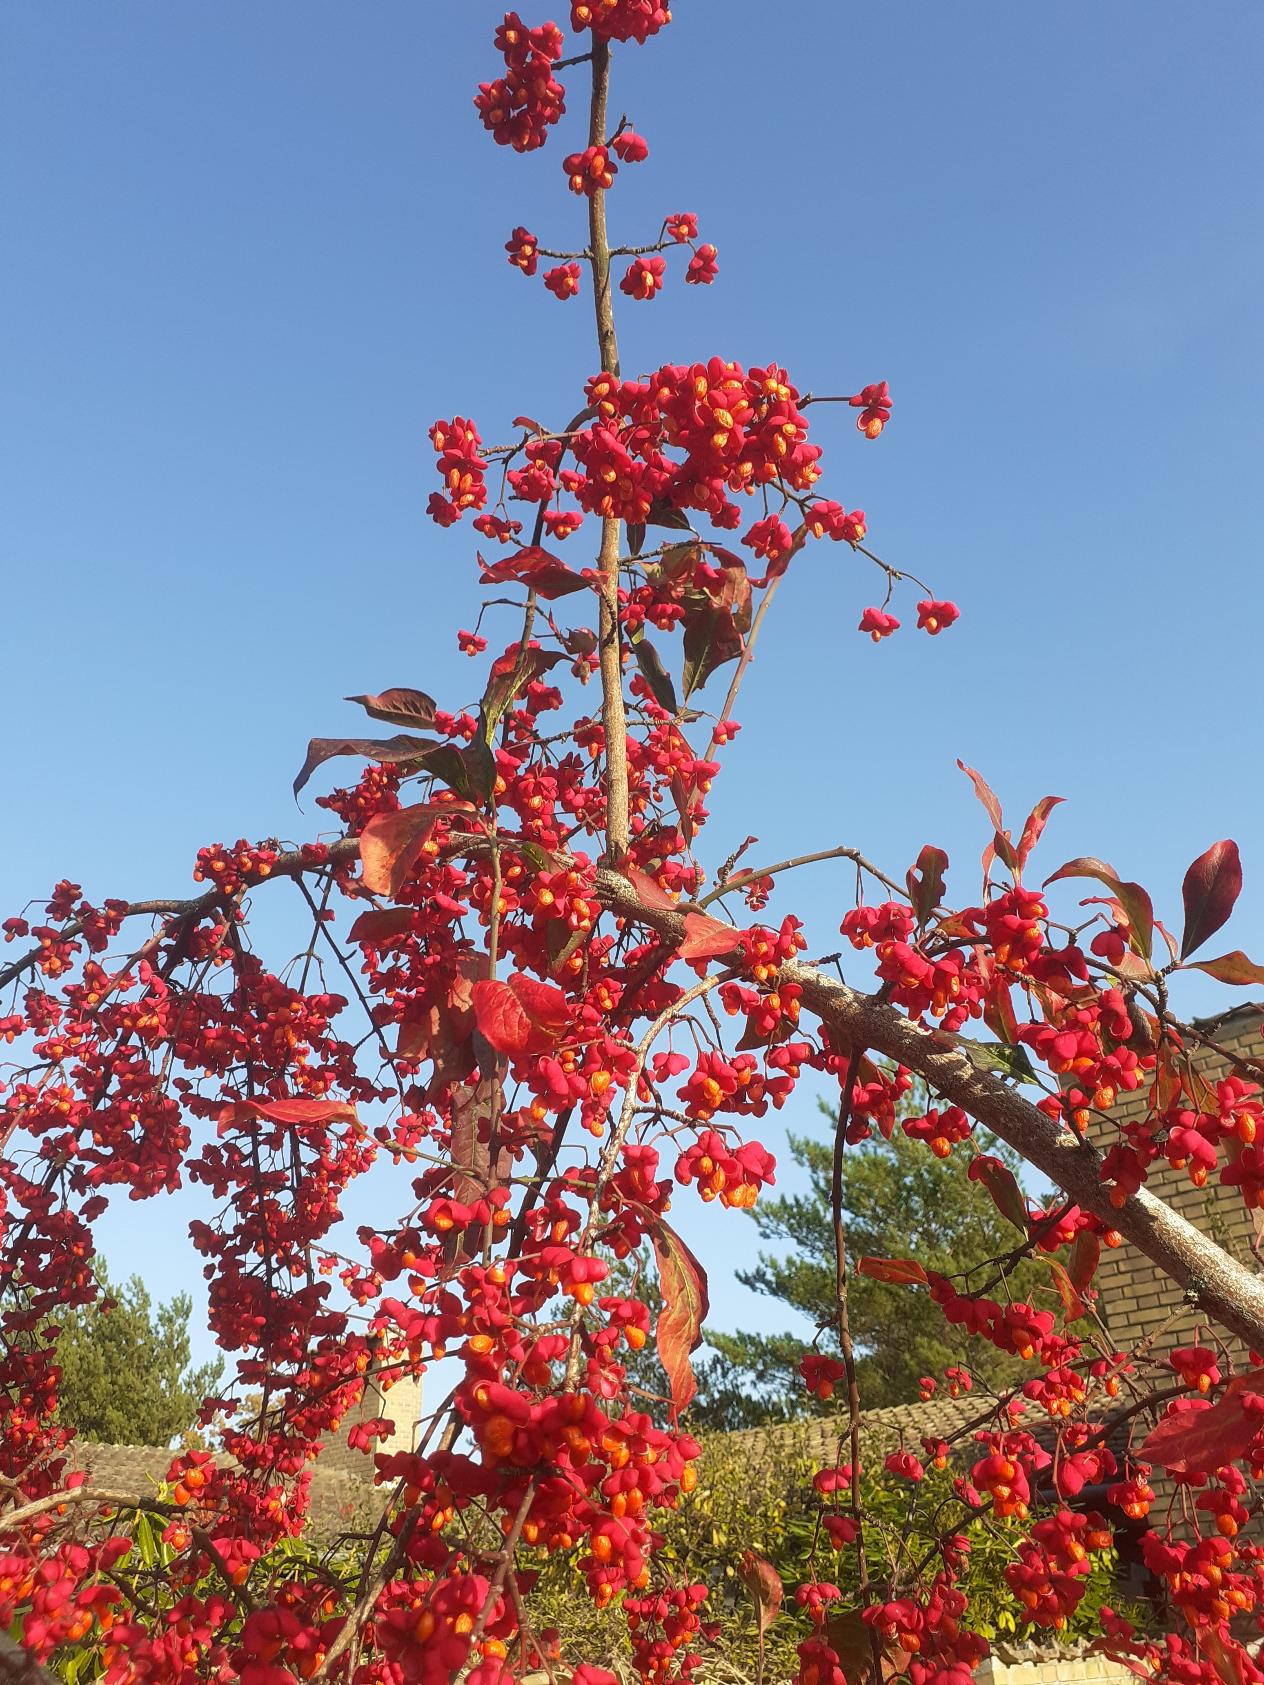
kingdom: Plantae
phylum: Tracheophyta
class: Magnoliopsida
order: Celastrales
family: Celastraceae
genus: Euonymus
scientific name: Euonymus europaeus
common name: Benved
